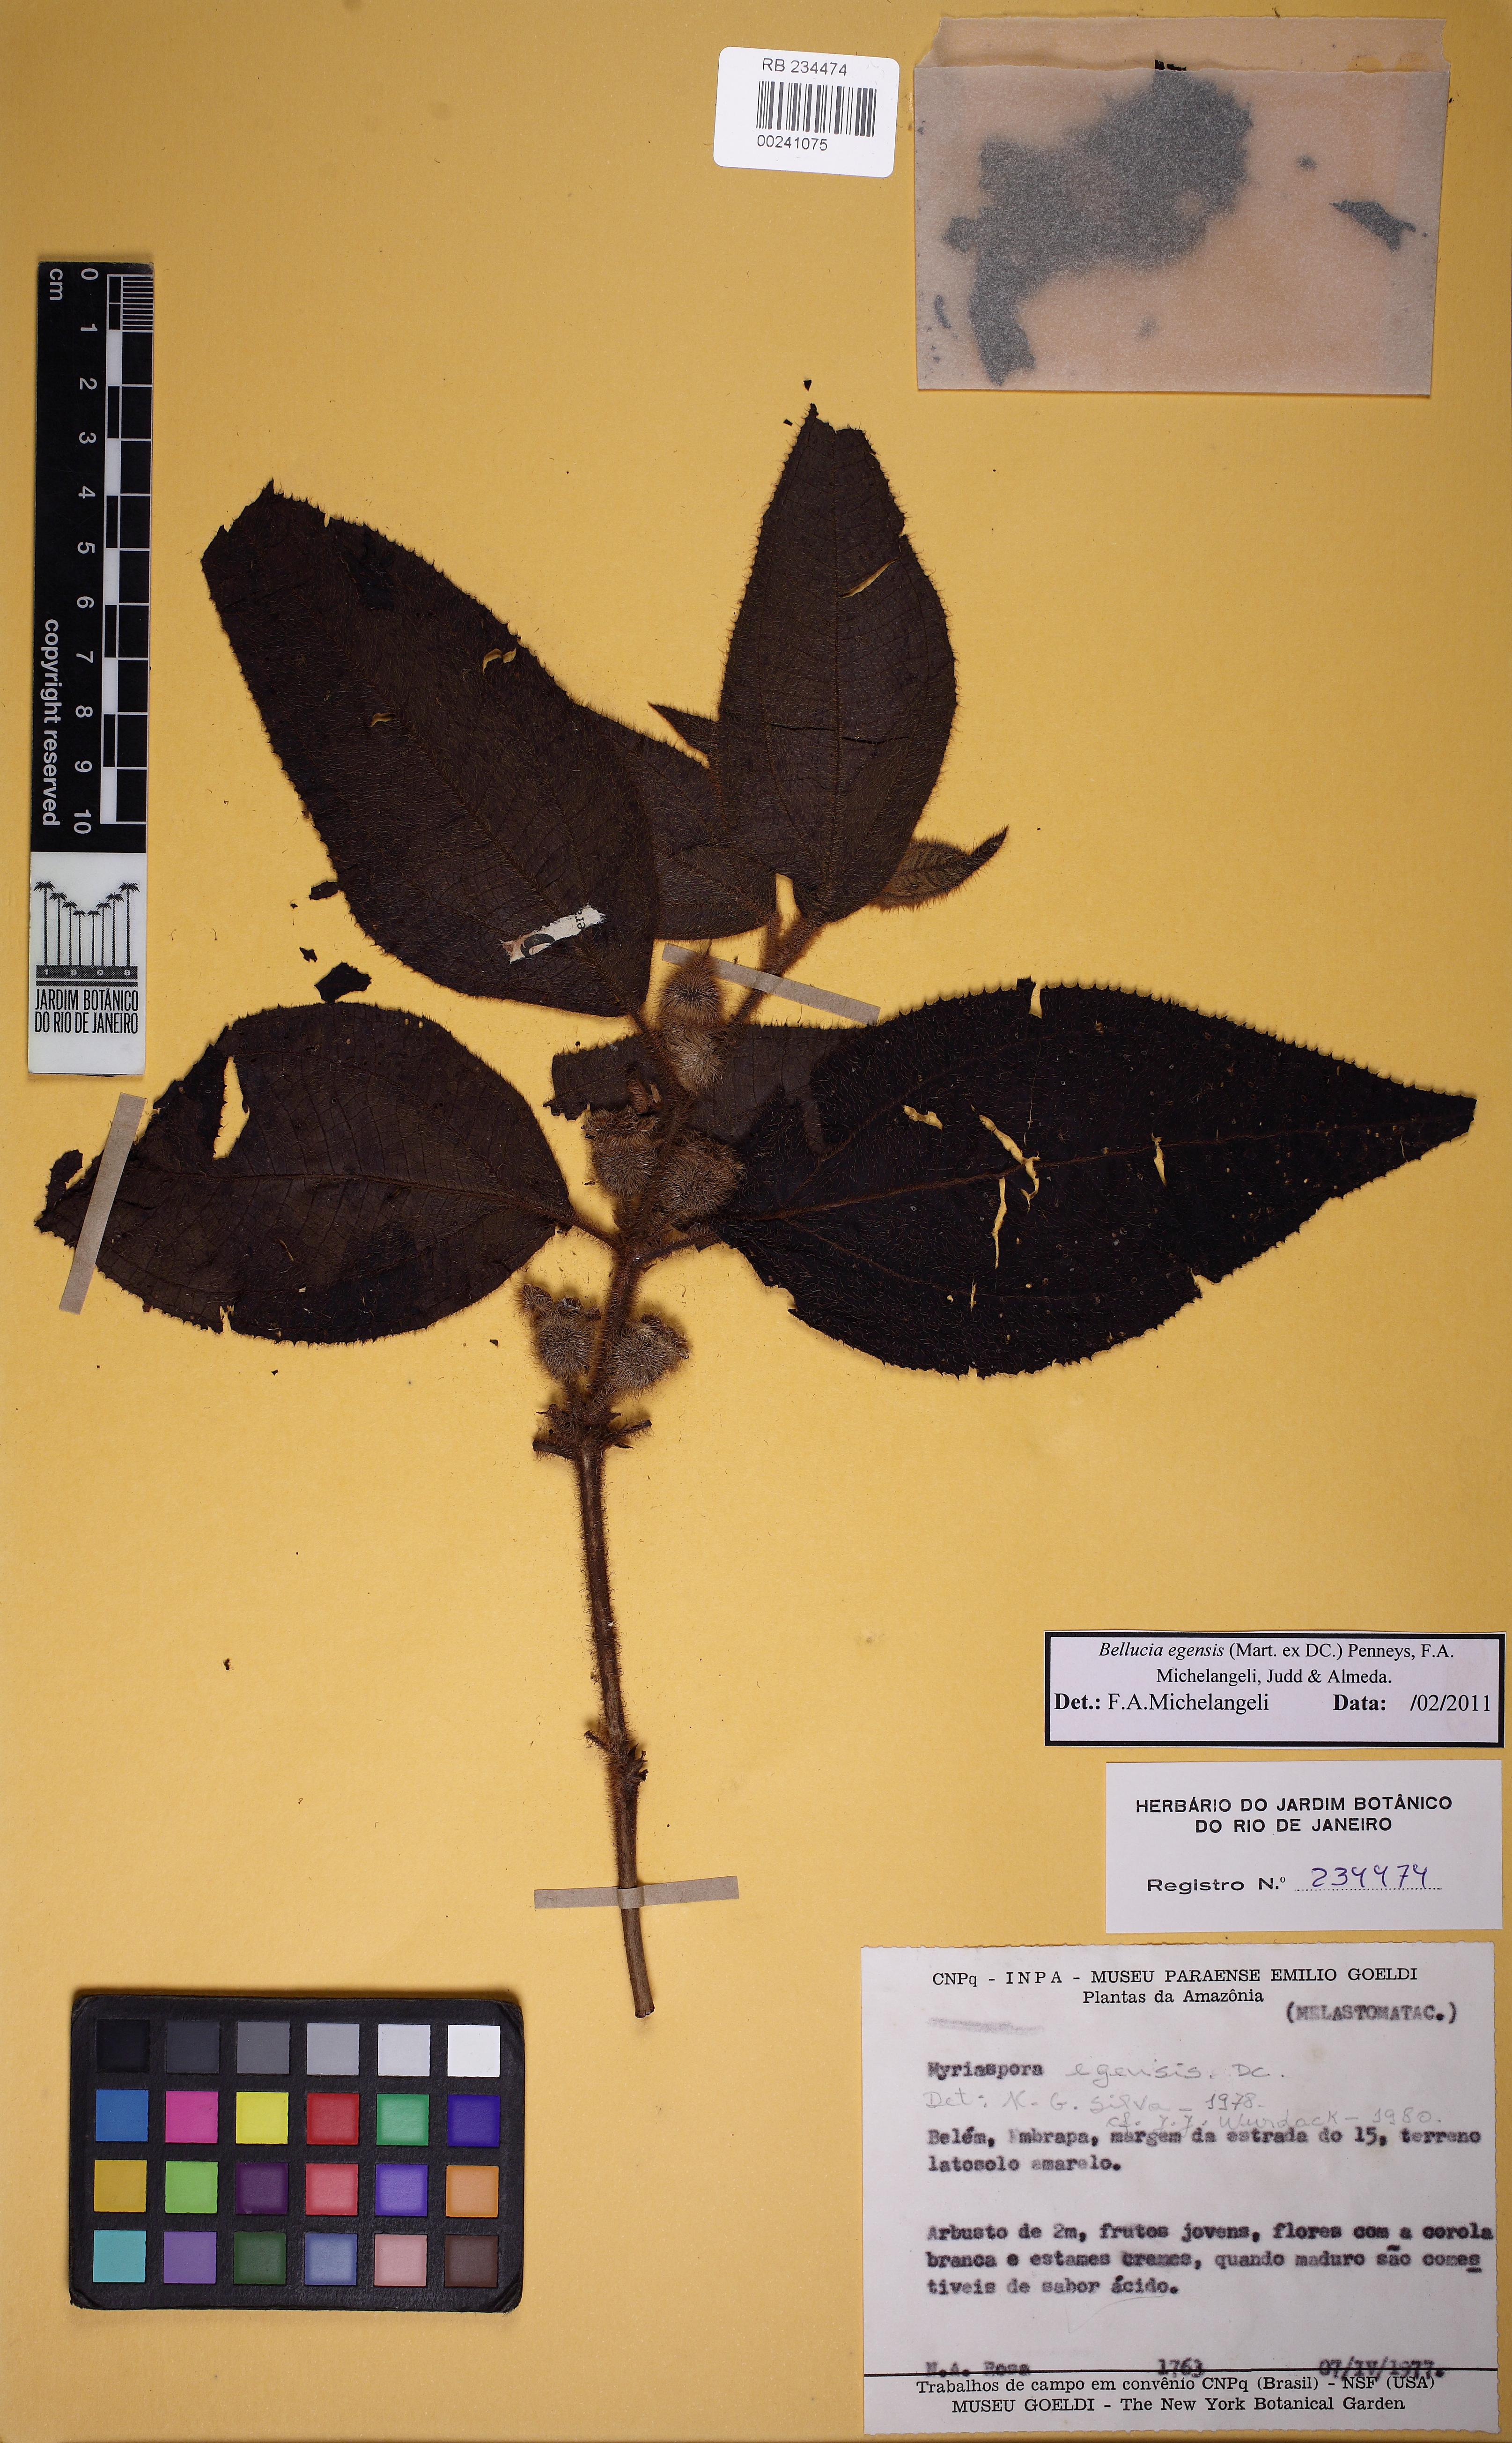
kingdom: Plantae
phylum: Tracheophyta
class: Magnoliopsida
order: Myrtales
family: Melastomataceae
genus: Bellucia
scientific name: Bellucia egensis
